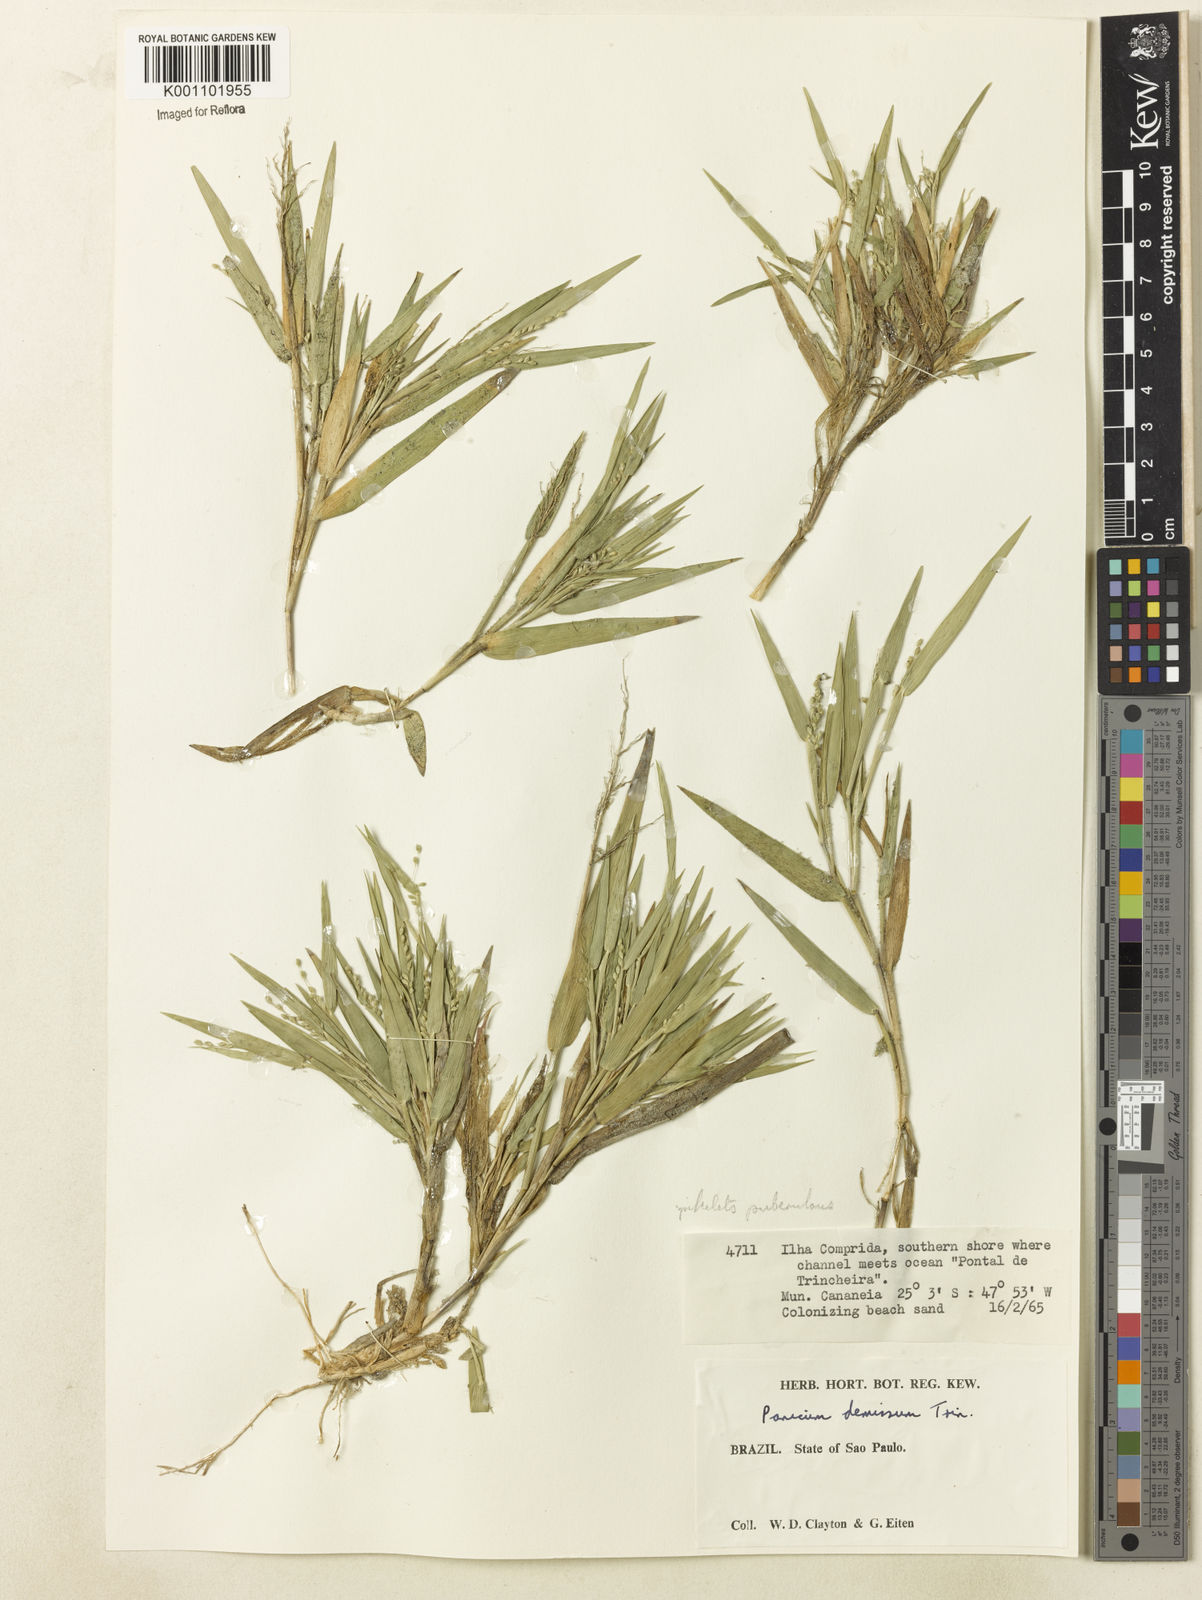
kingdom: Plantae
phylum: Tracheophyta
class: Liliopsida
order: Poales
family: Poaceae
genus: Dichanthelium
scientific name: Dichanthelium sabulorum
